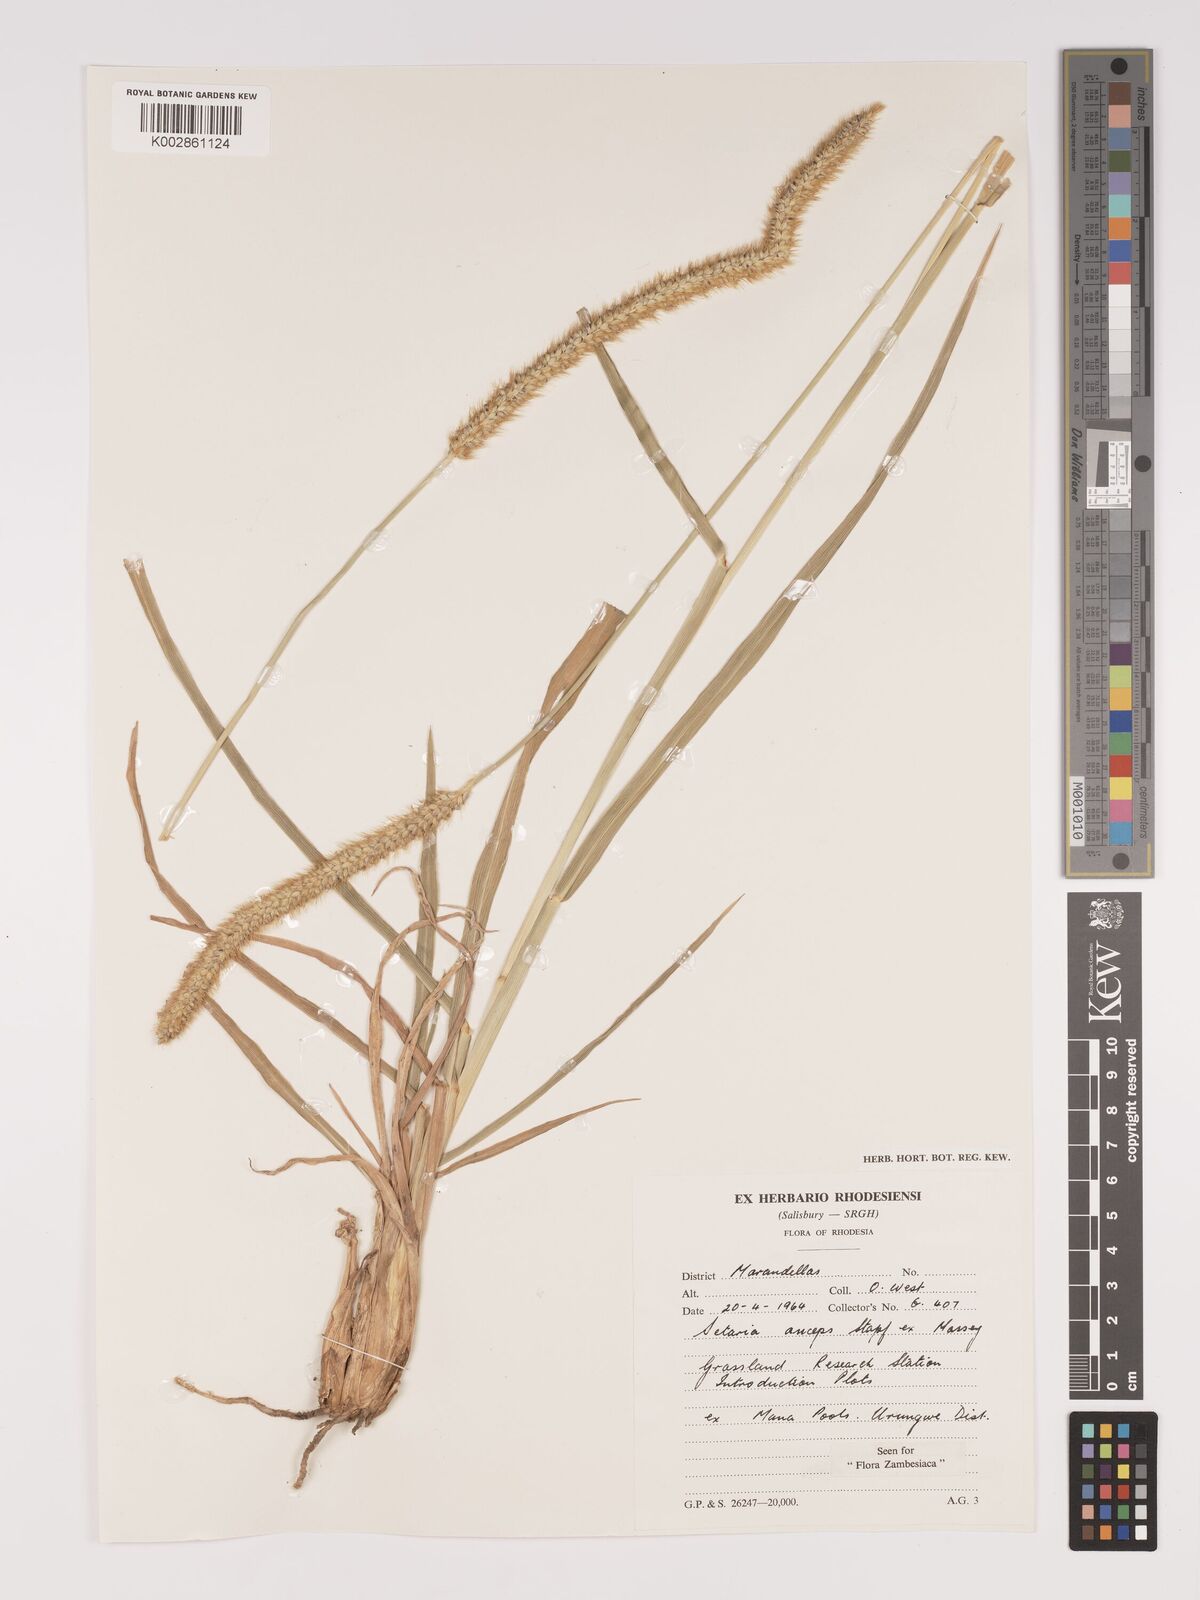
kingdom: Plantae
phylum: Tracheophyta
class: Liliopsida
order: Poales
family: Poaceae
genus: Setaria
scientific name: Setaria sphacelata
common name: African bristlegrass
